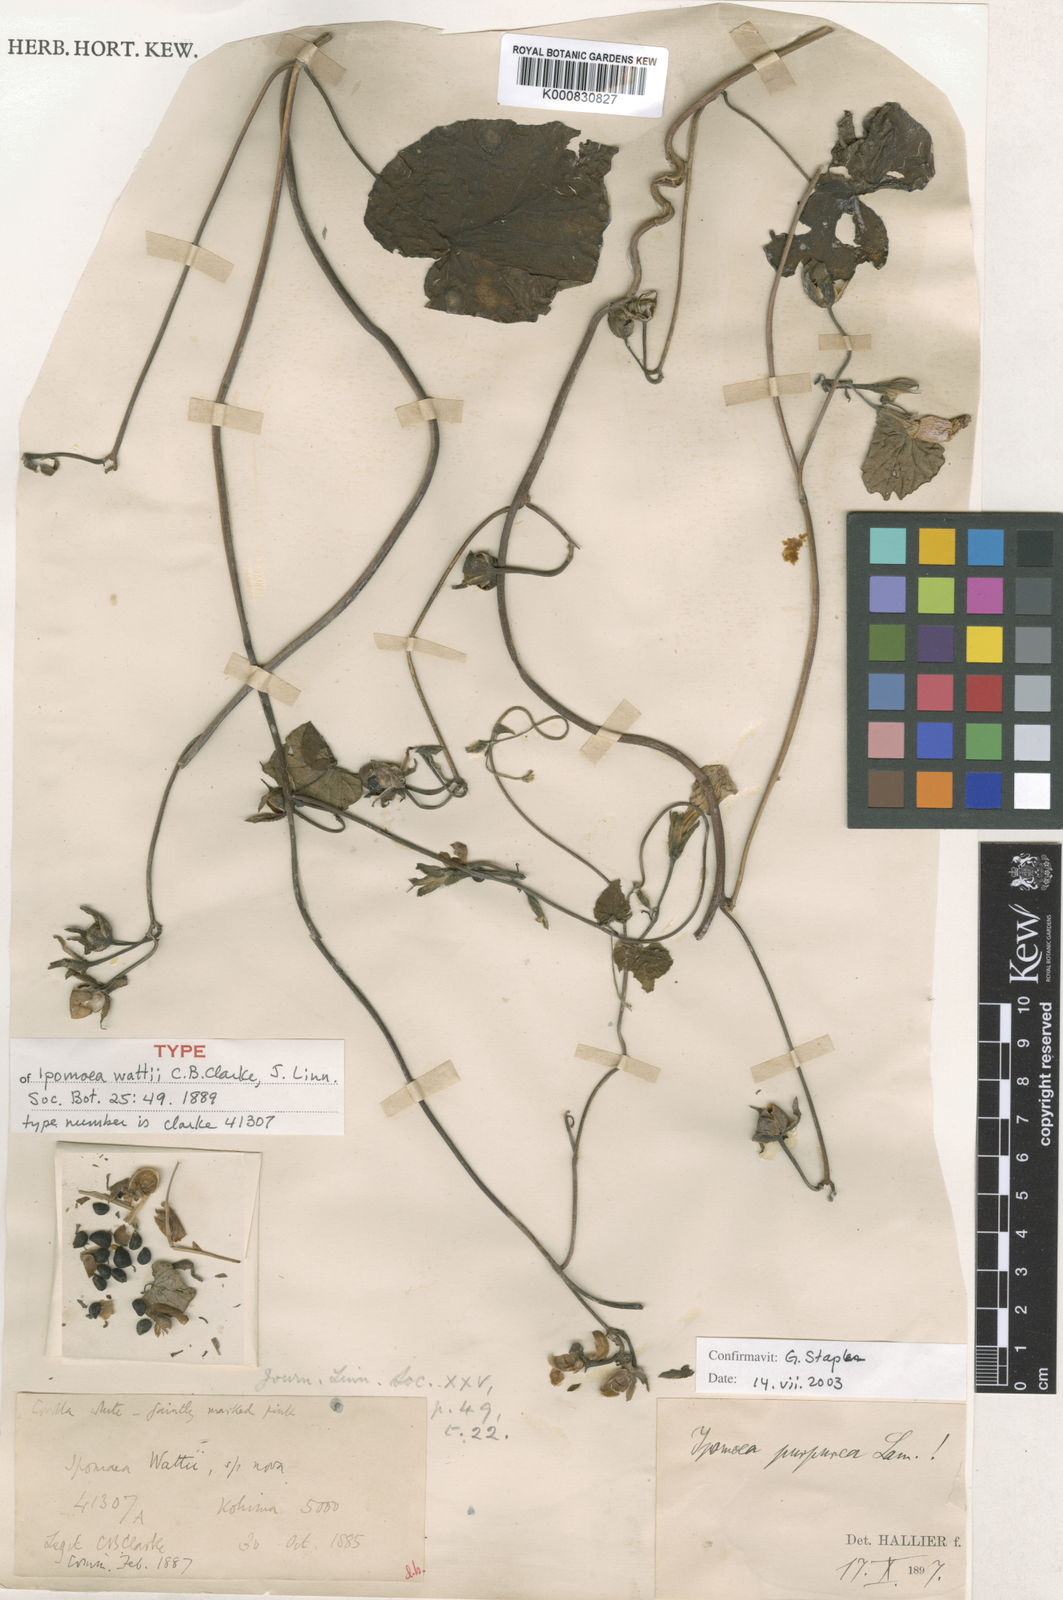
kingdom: Plantae
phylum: Tracheophyta
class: Magnoliopsida
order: Solanales
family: Convolvulaceae
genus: Ipomoea
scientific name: Ipomoea
